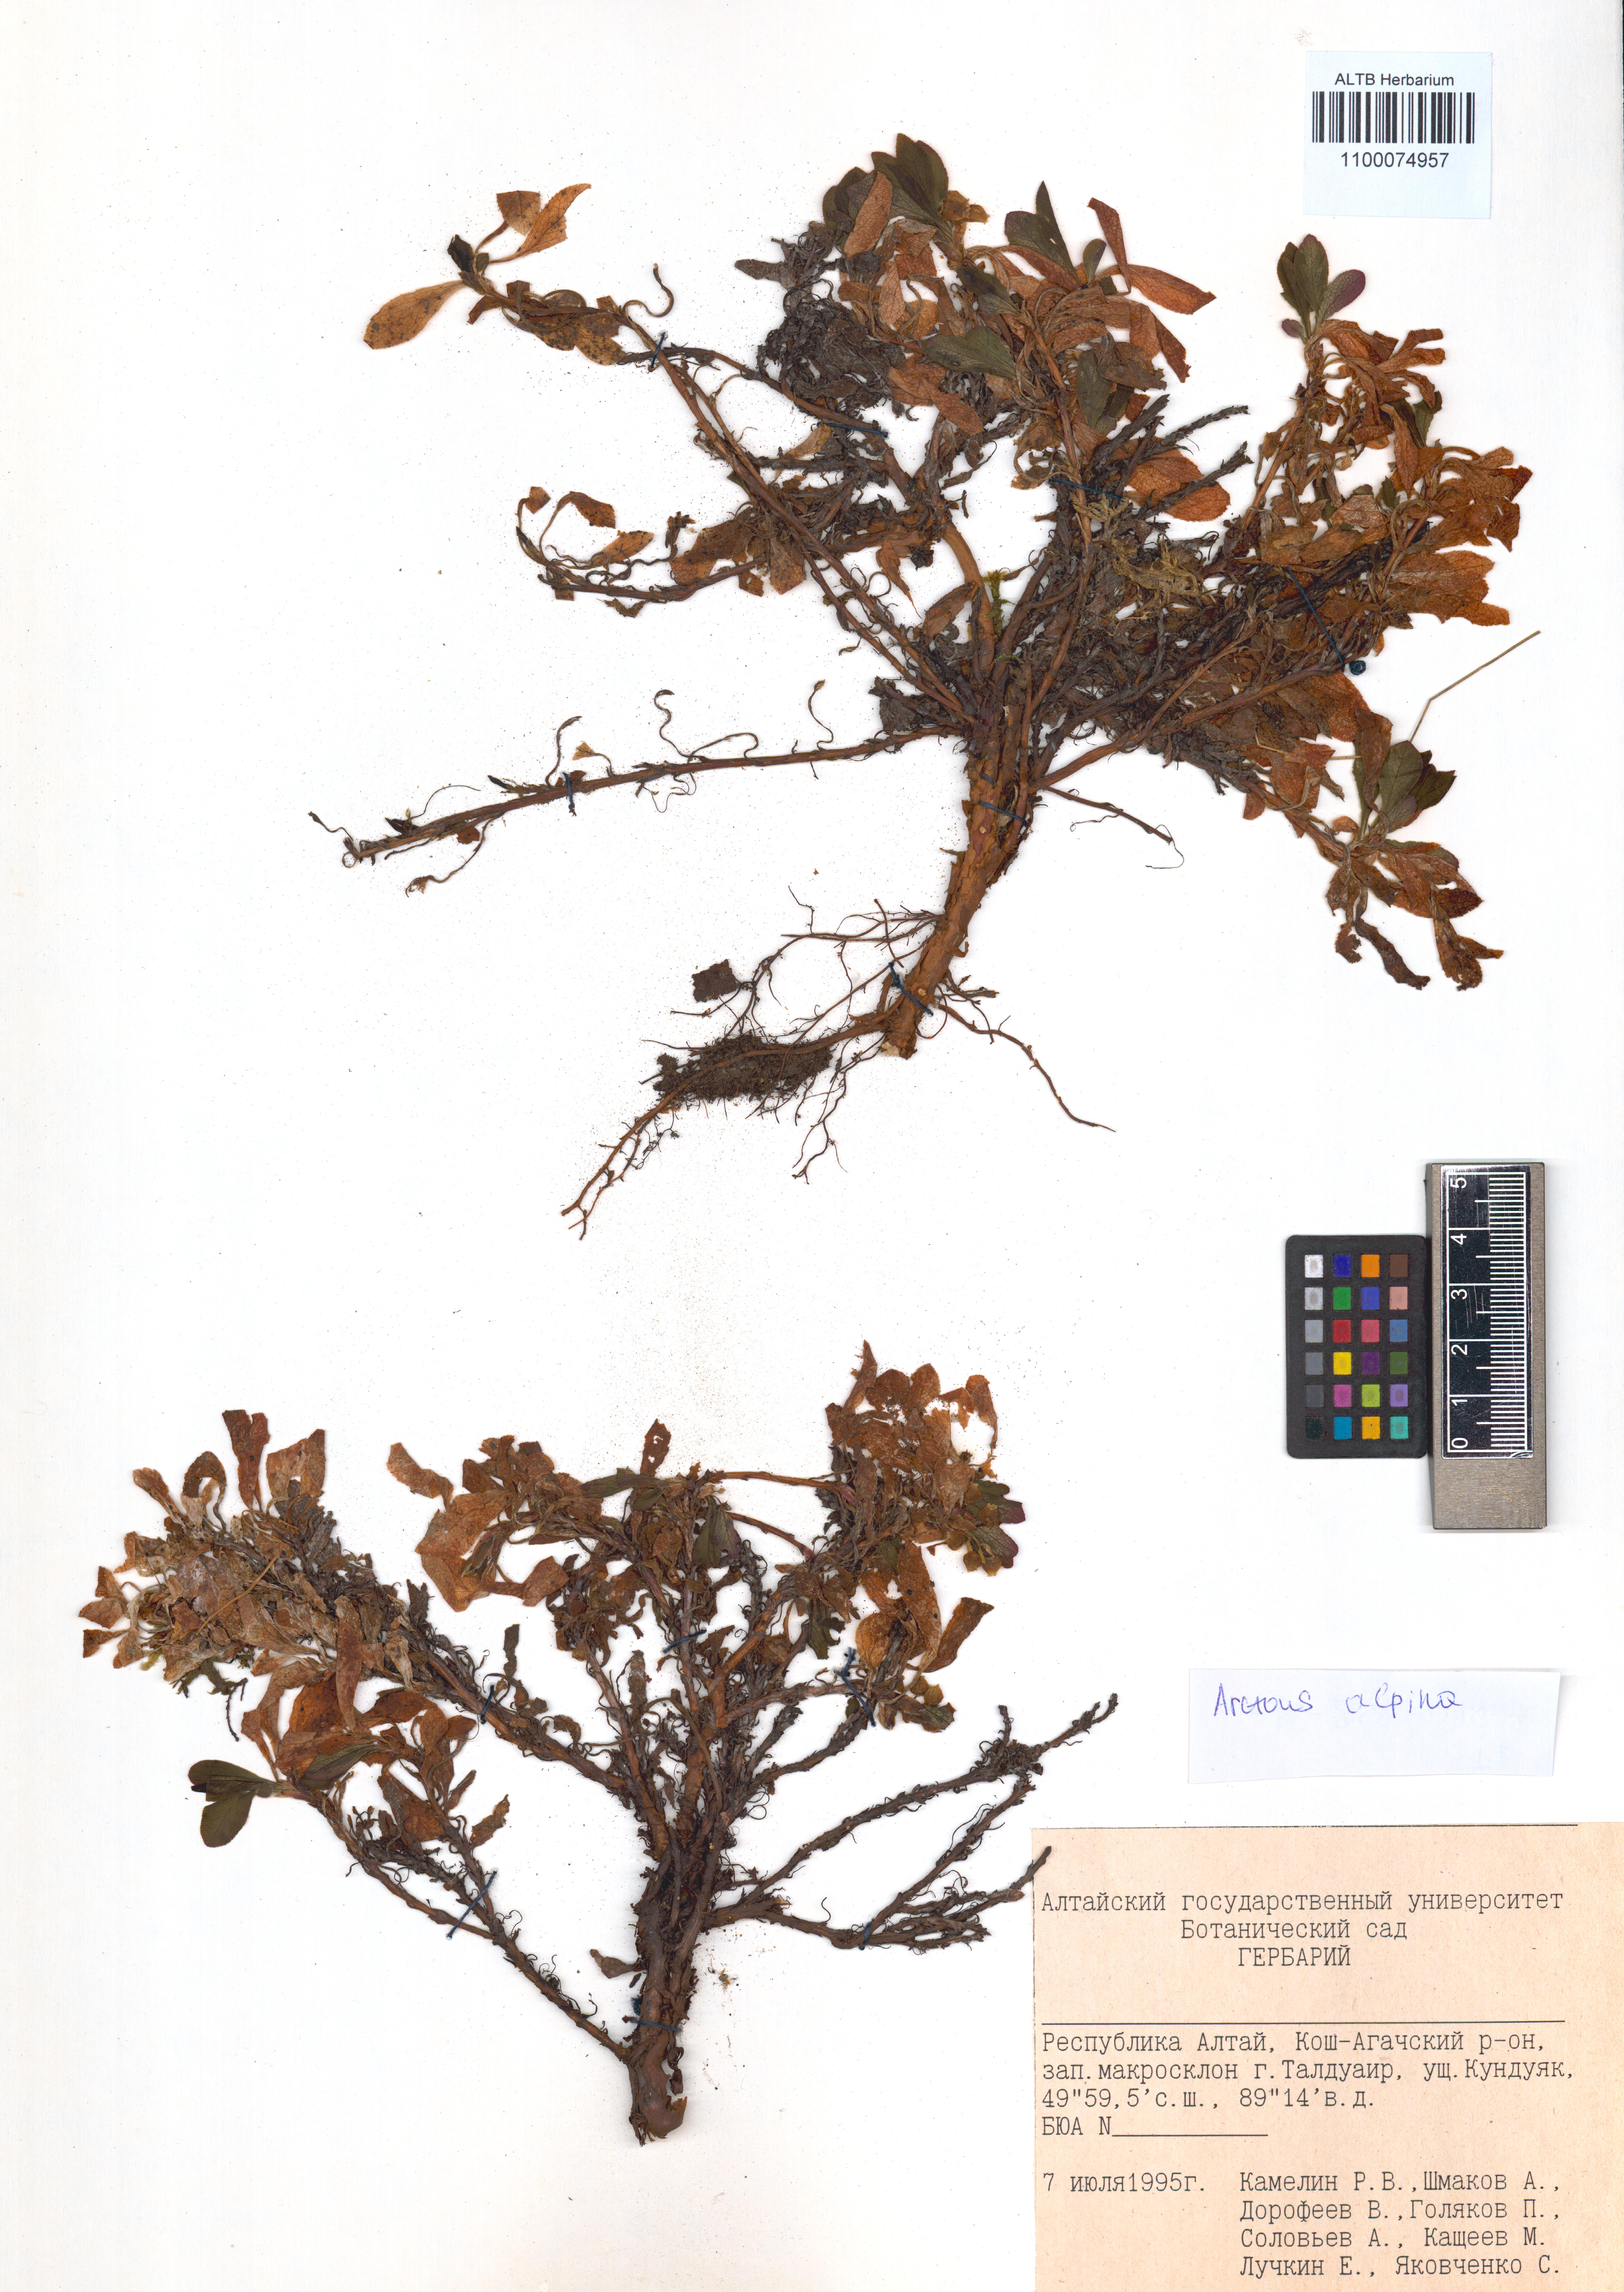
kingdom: Plantae
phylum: Tracheophyta
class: Magnoliopsida
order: Ericales
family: Ericaceae
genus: Arctostaphylos
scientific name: Arctostaphylos alpinus
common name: Alpine bearberry
